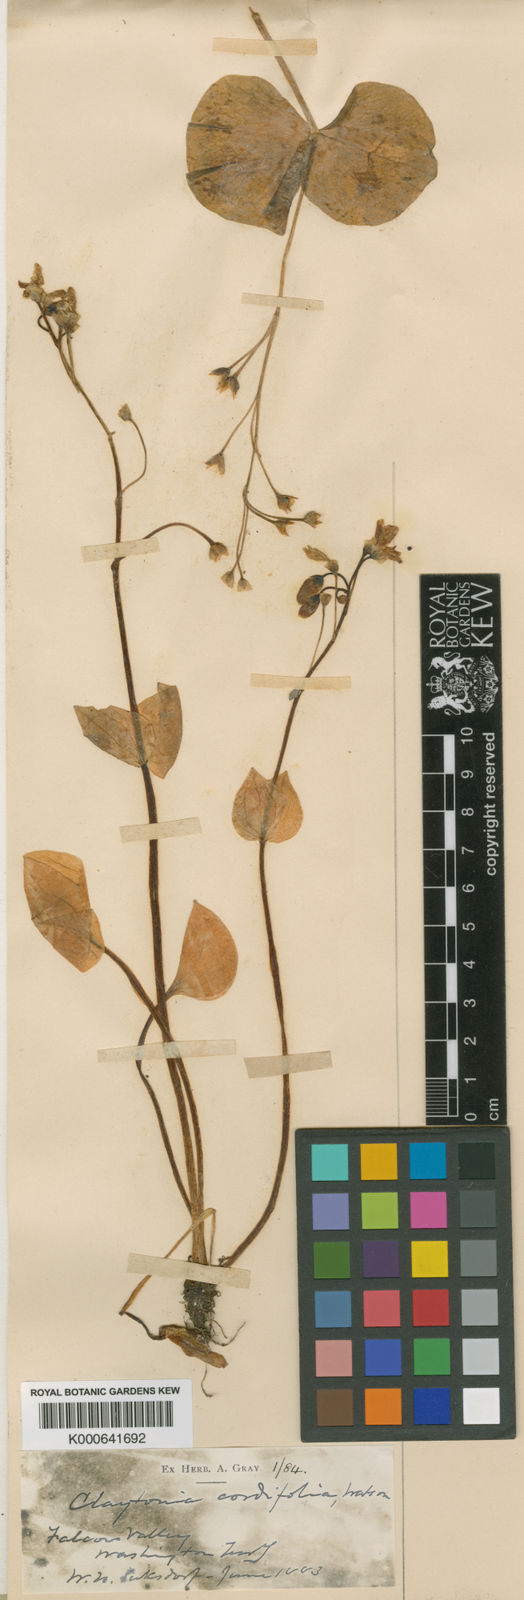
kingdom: Plantae
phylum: Tracheophyta
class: Magnoliopsida
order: Caryophyllales
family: Montiaceae
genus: Claytonia
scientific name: Claytonia sibirica
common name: Pink purslane
